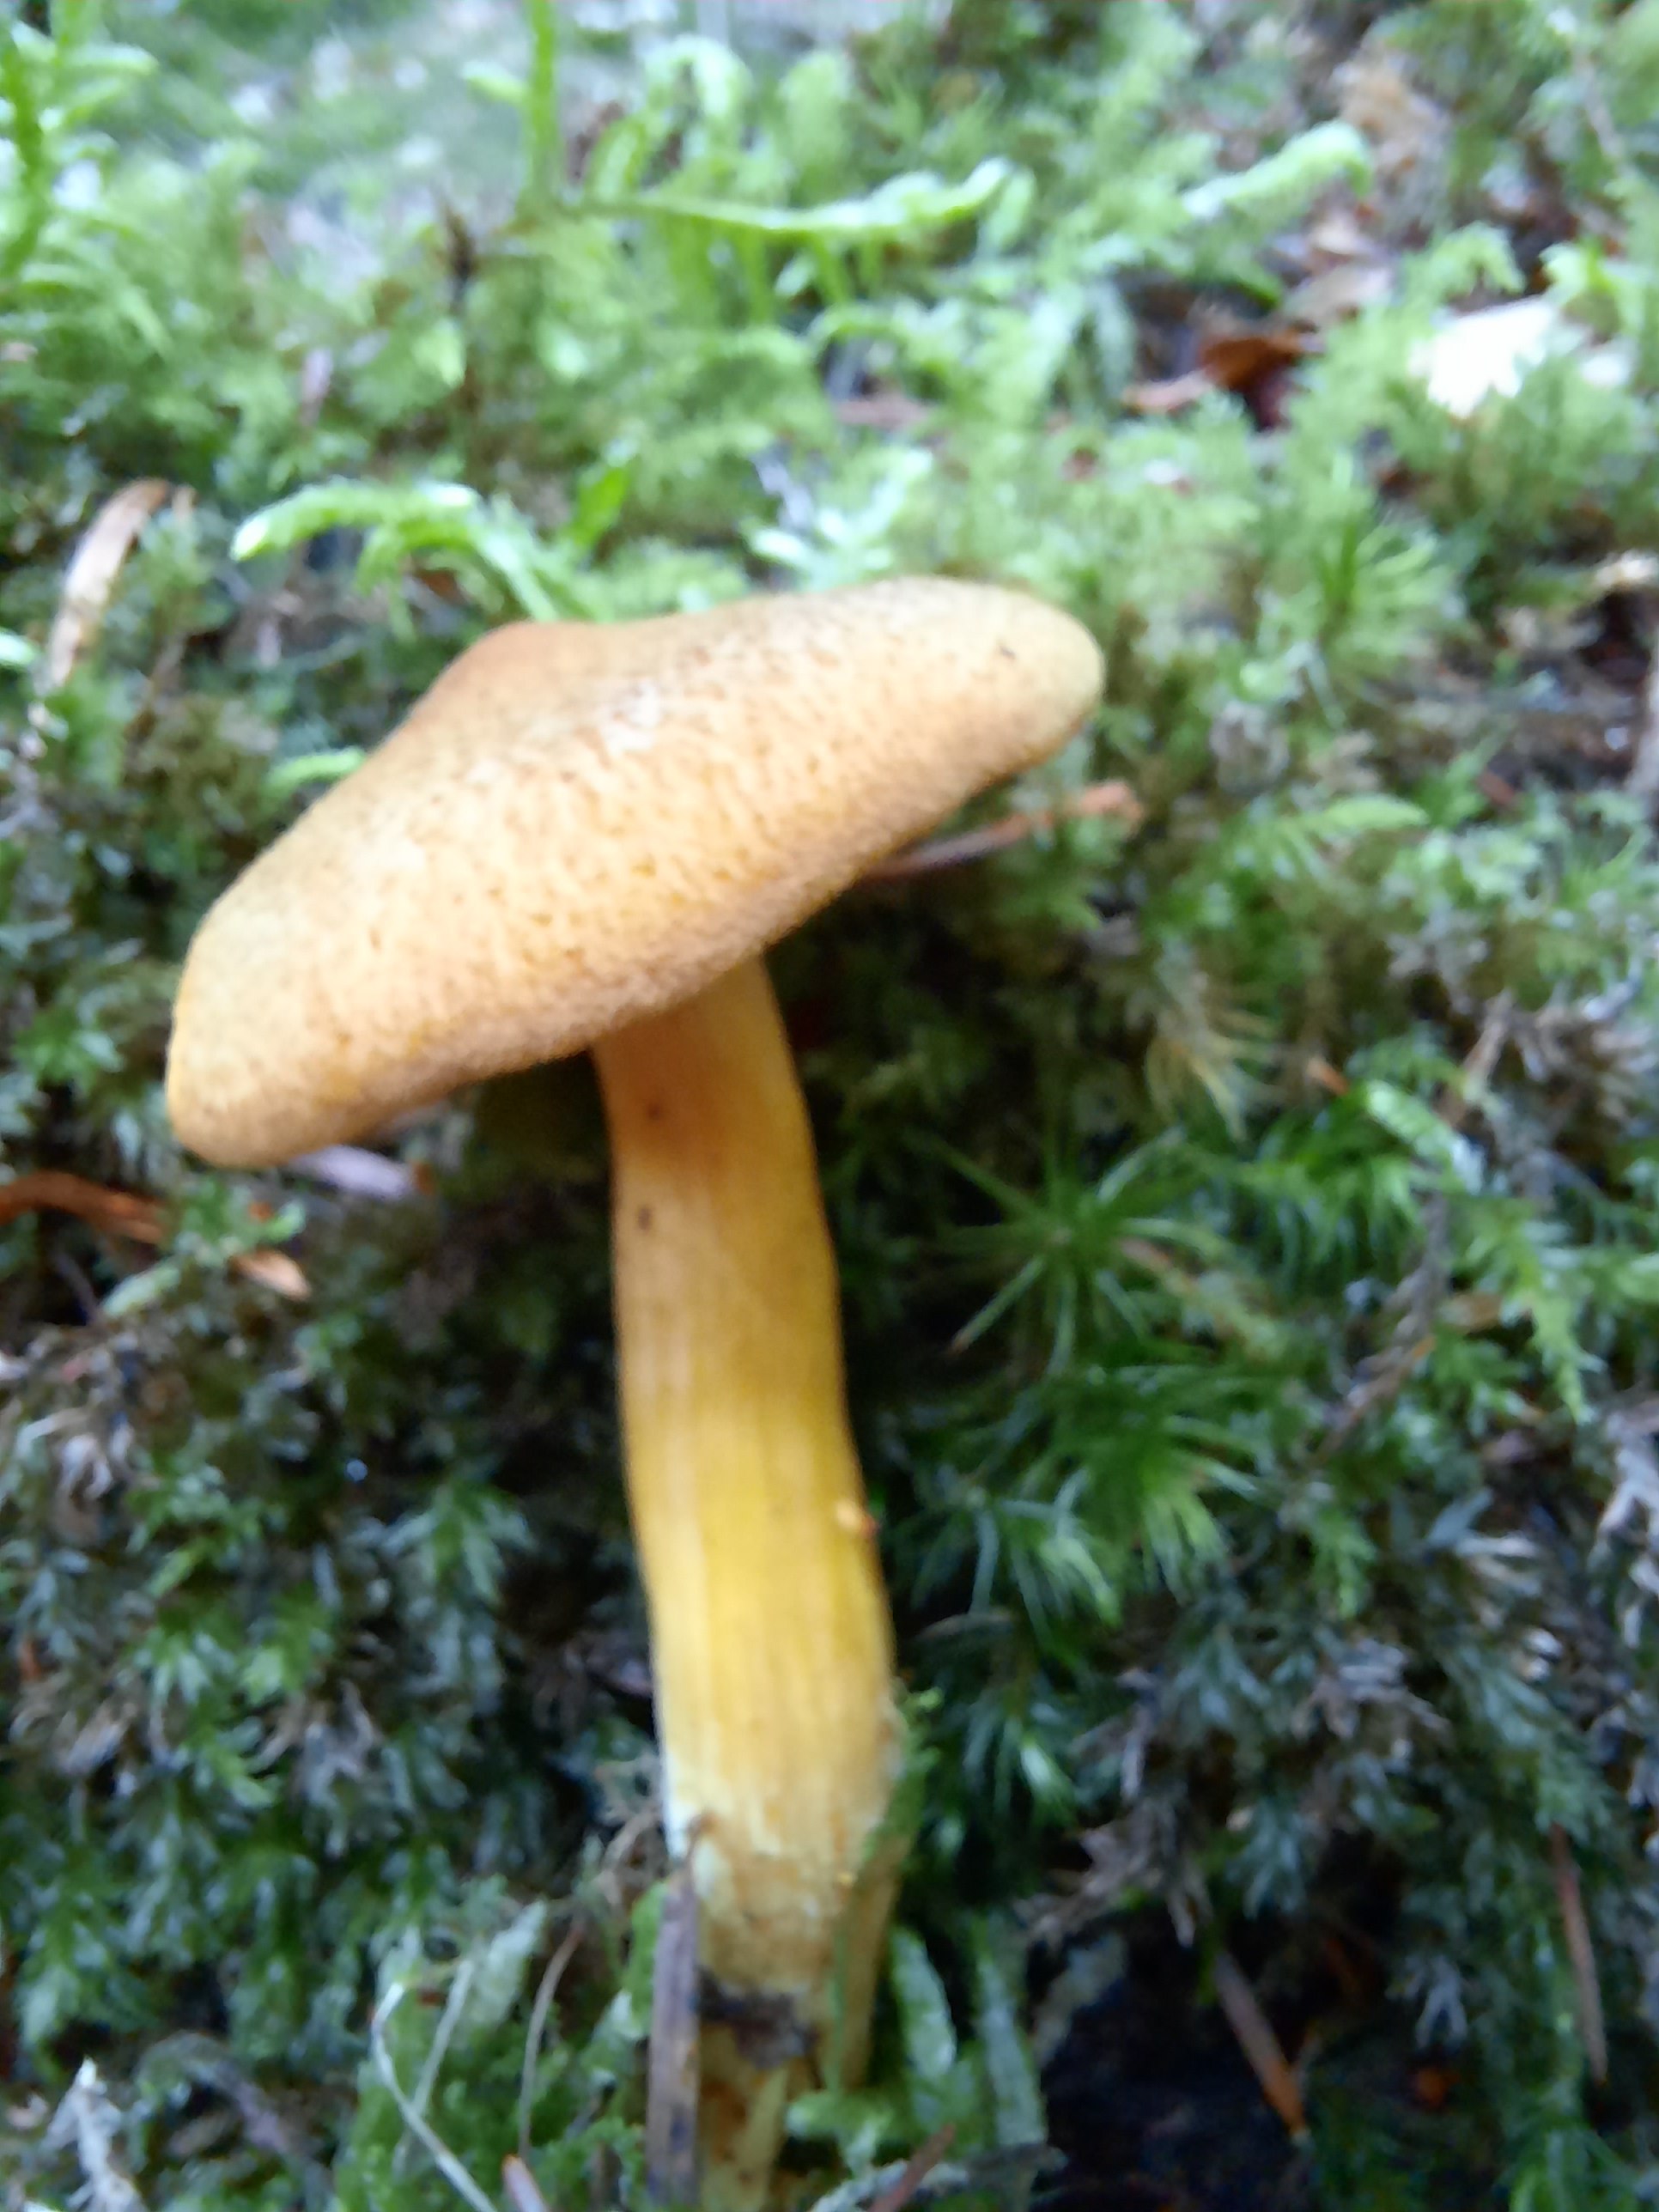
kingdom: Fungi
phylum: Basidiomycota
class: Agaricomycetes
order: Agaricales
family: Tricholomataceae
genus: Tricholomopsis
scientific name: Tricholomopsis decora
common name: sortskællet væbnerhat
